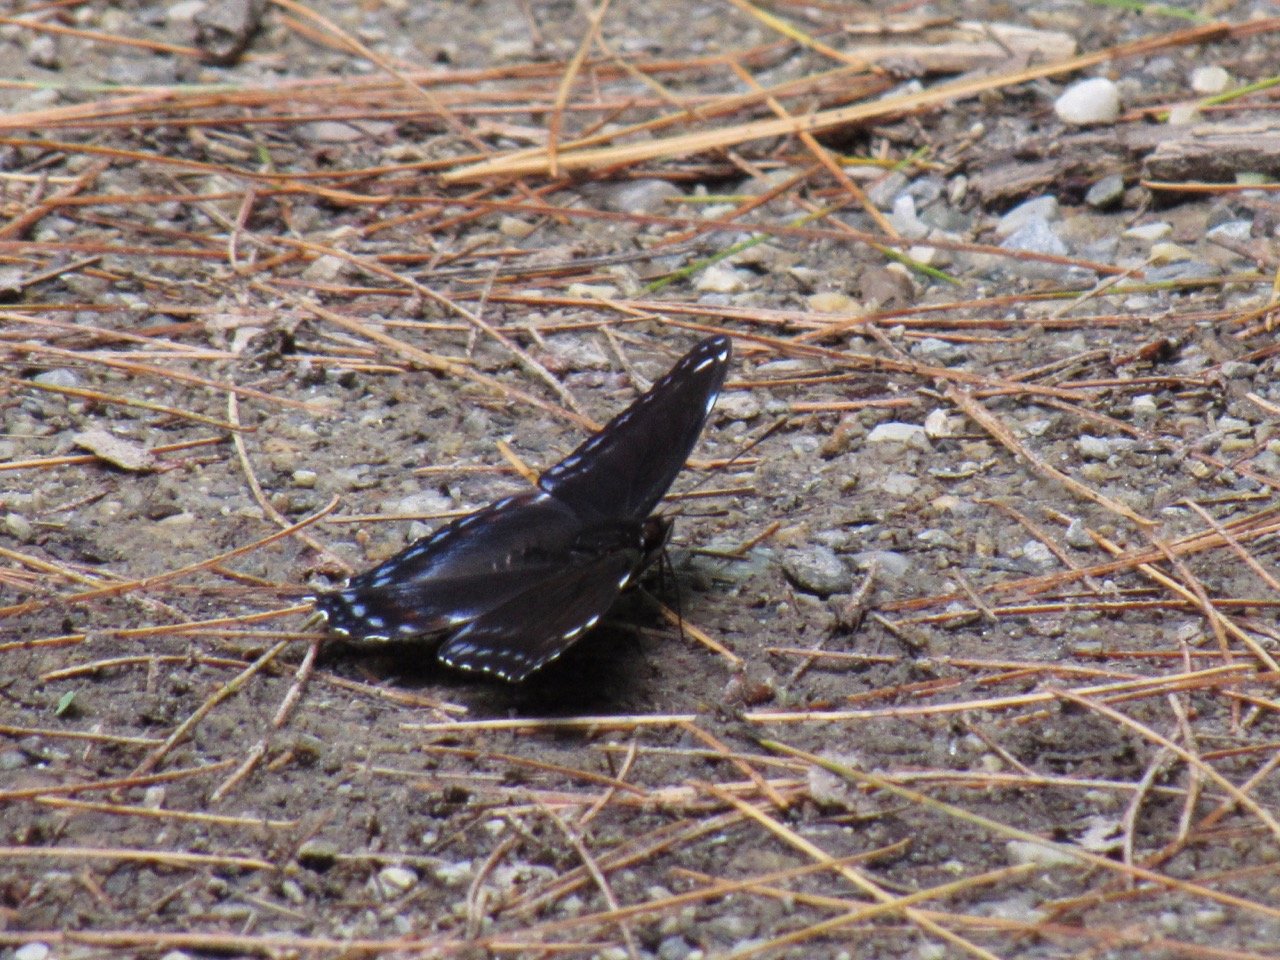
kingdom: Animalia
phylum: Arthropoda
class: Insecta
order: Lepidoptera
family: Nymphalidae
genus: Limenitis
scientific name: Limenitis
